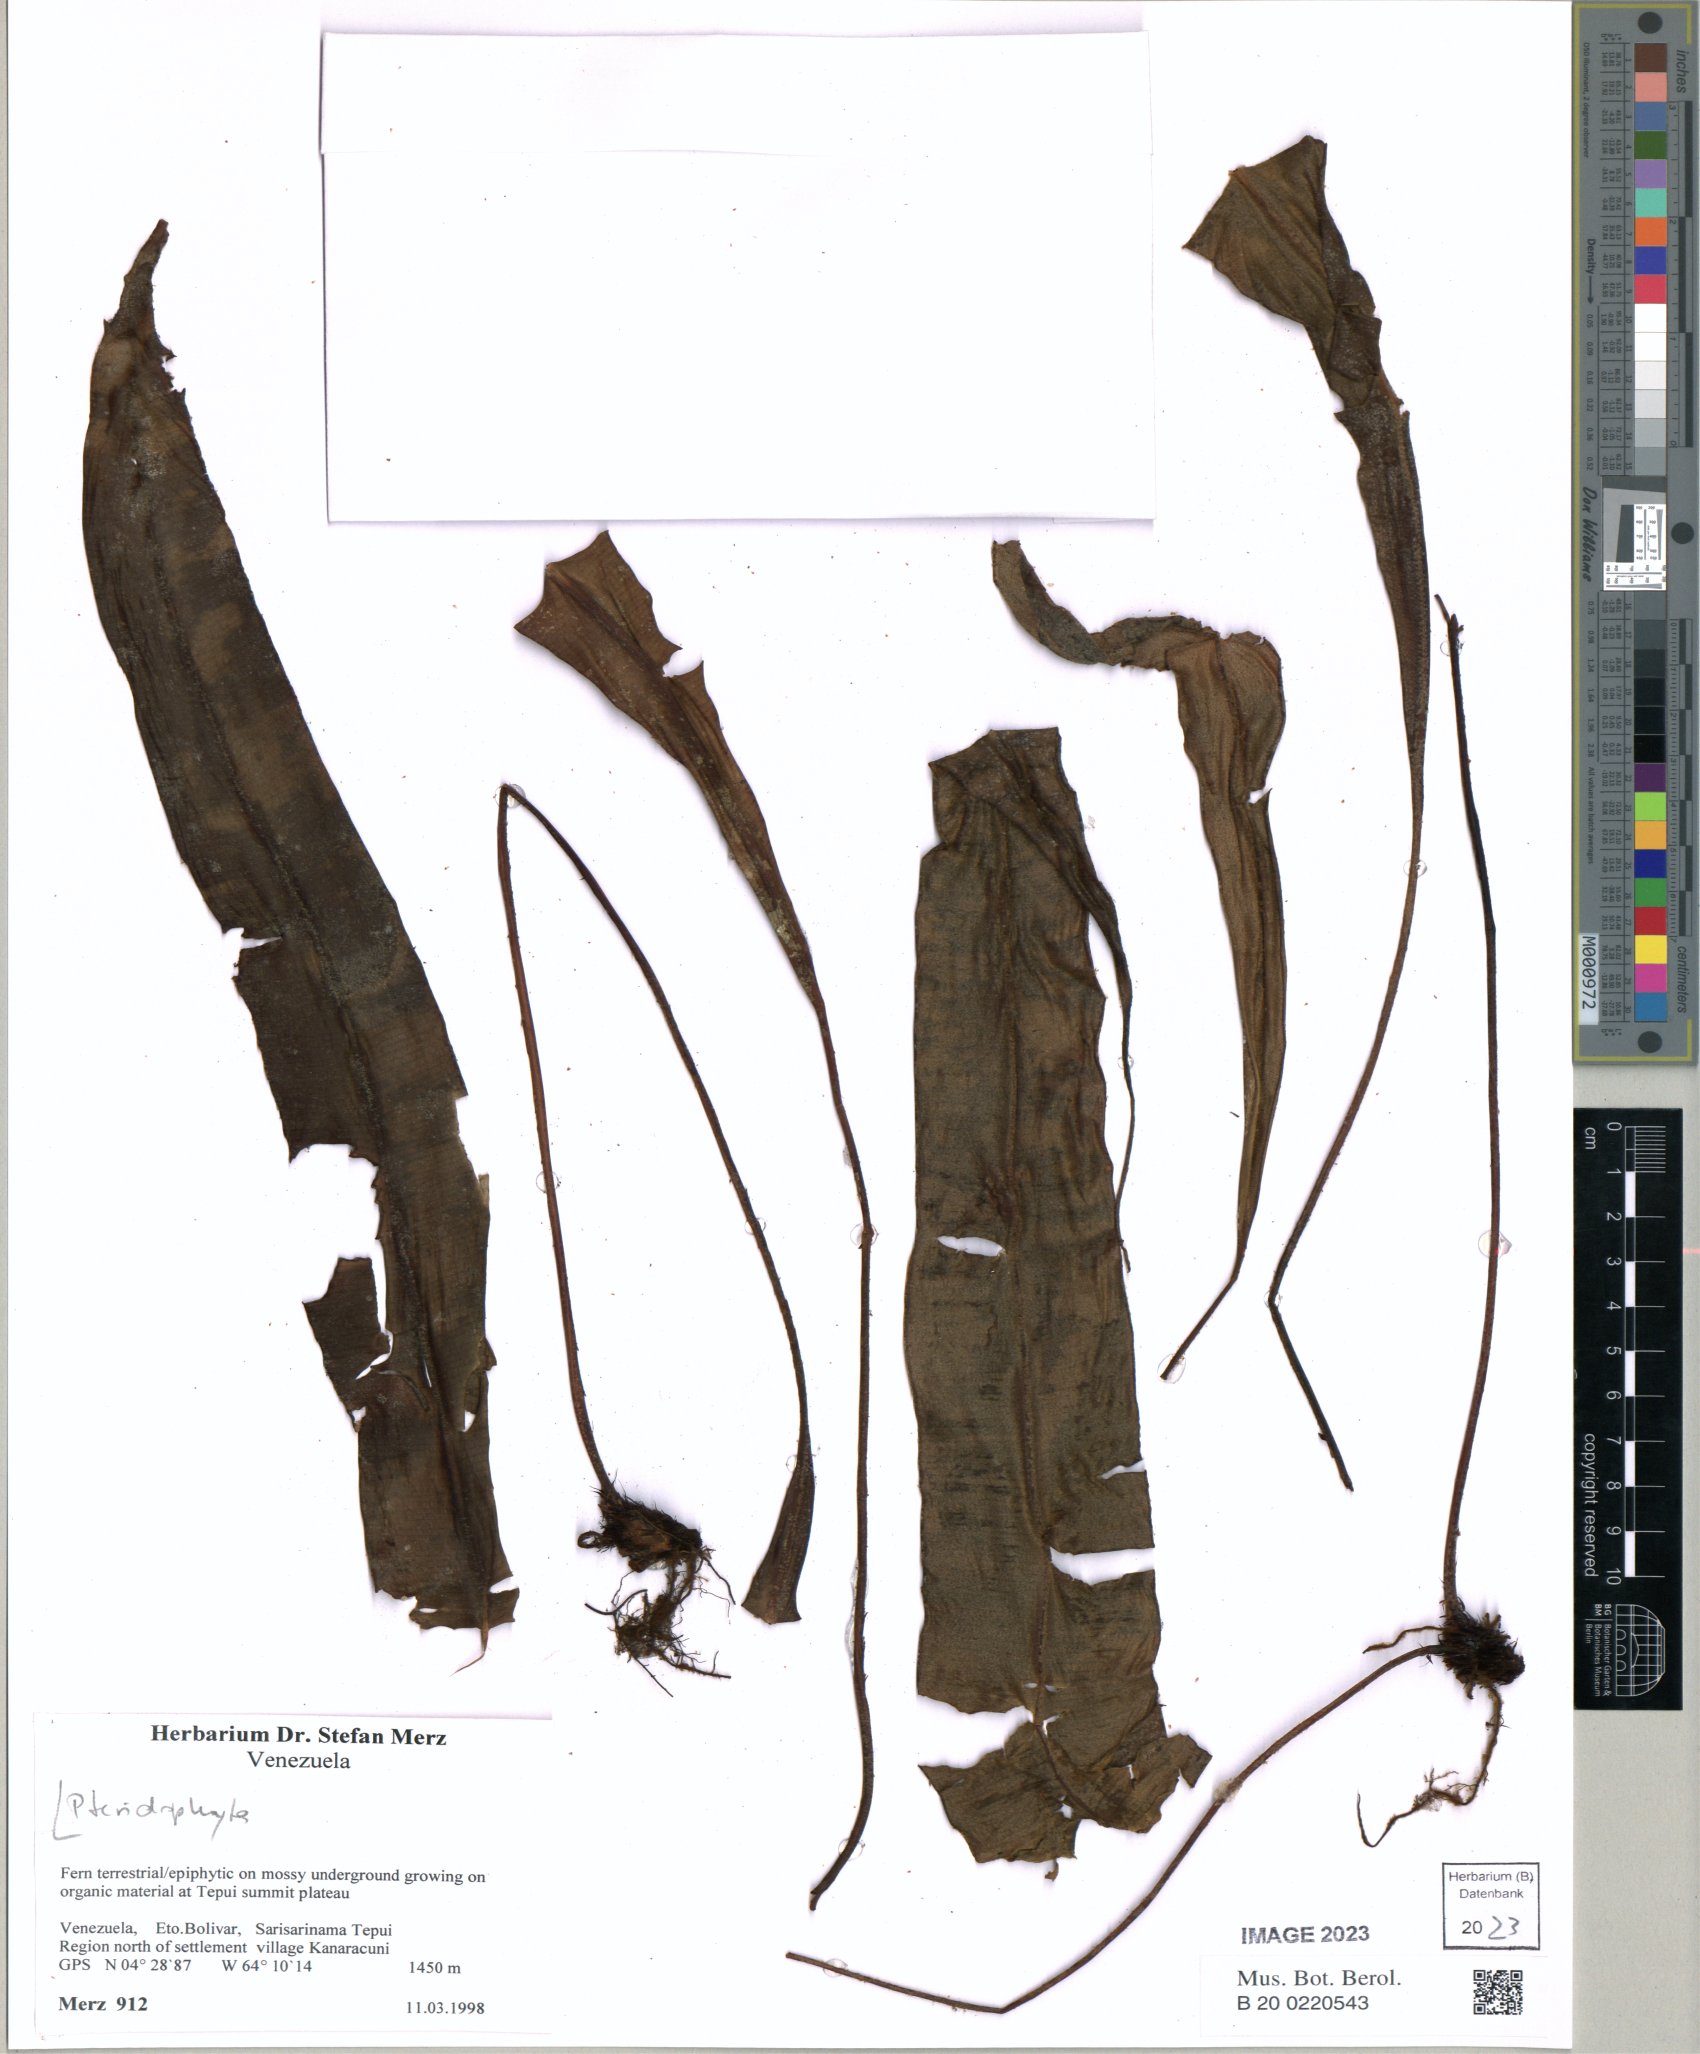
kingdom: Plantae
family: Pteridophyta
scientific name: Pteridophyta
